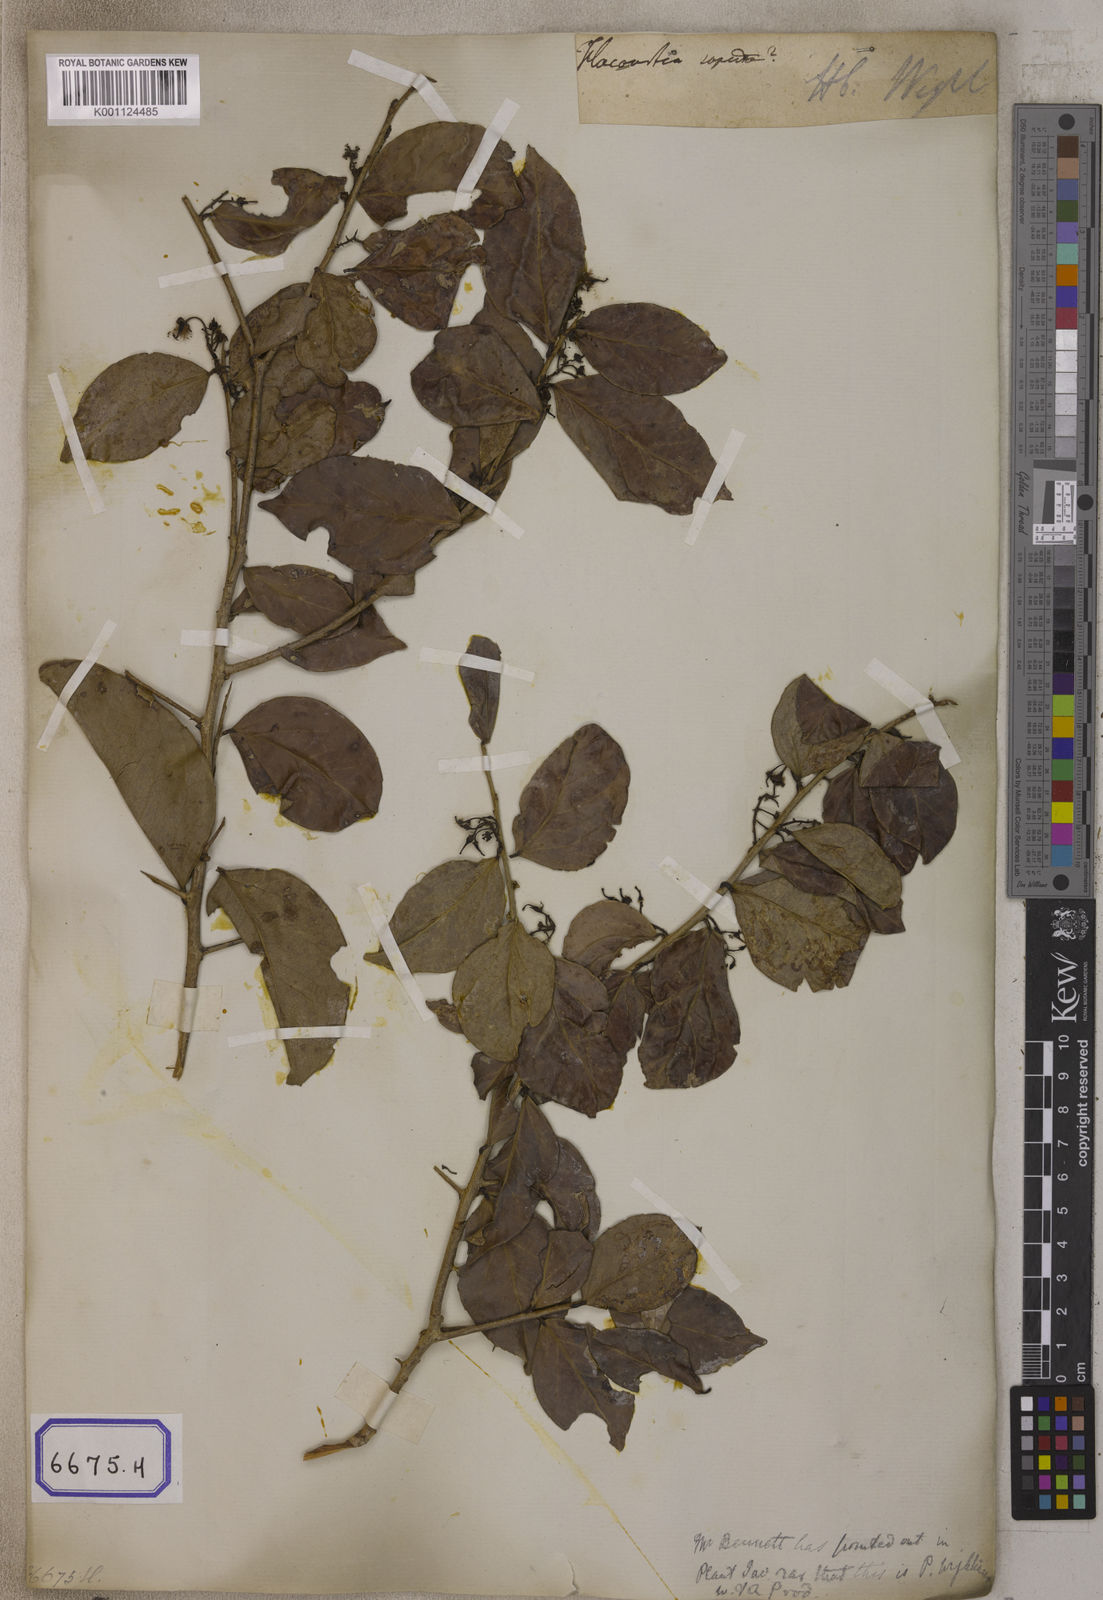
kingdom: Plantae
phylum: Tracheophyta
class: Magnoliopsida
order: Malpighiales
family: Salicaceae
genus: Flacourtia
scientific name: Flacourtia
